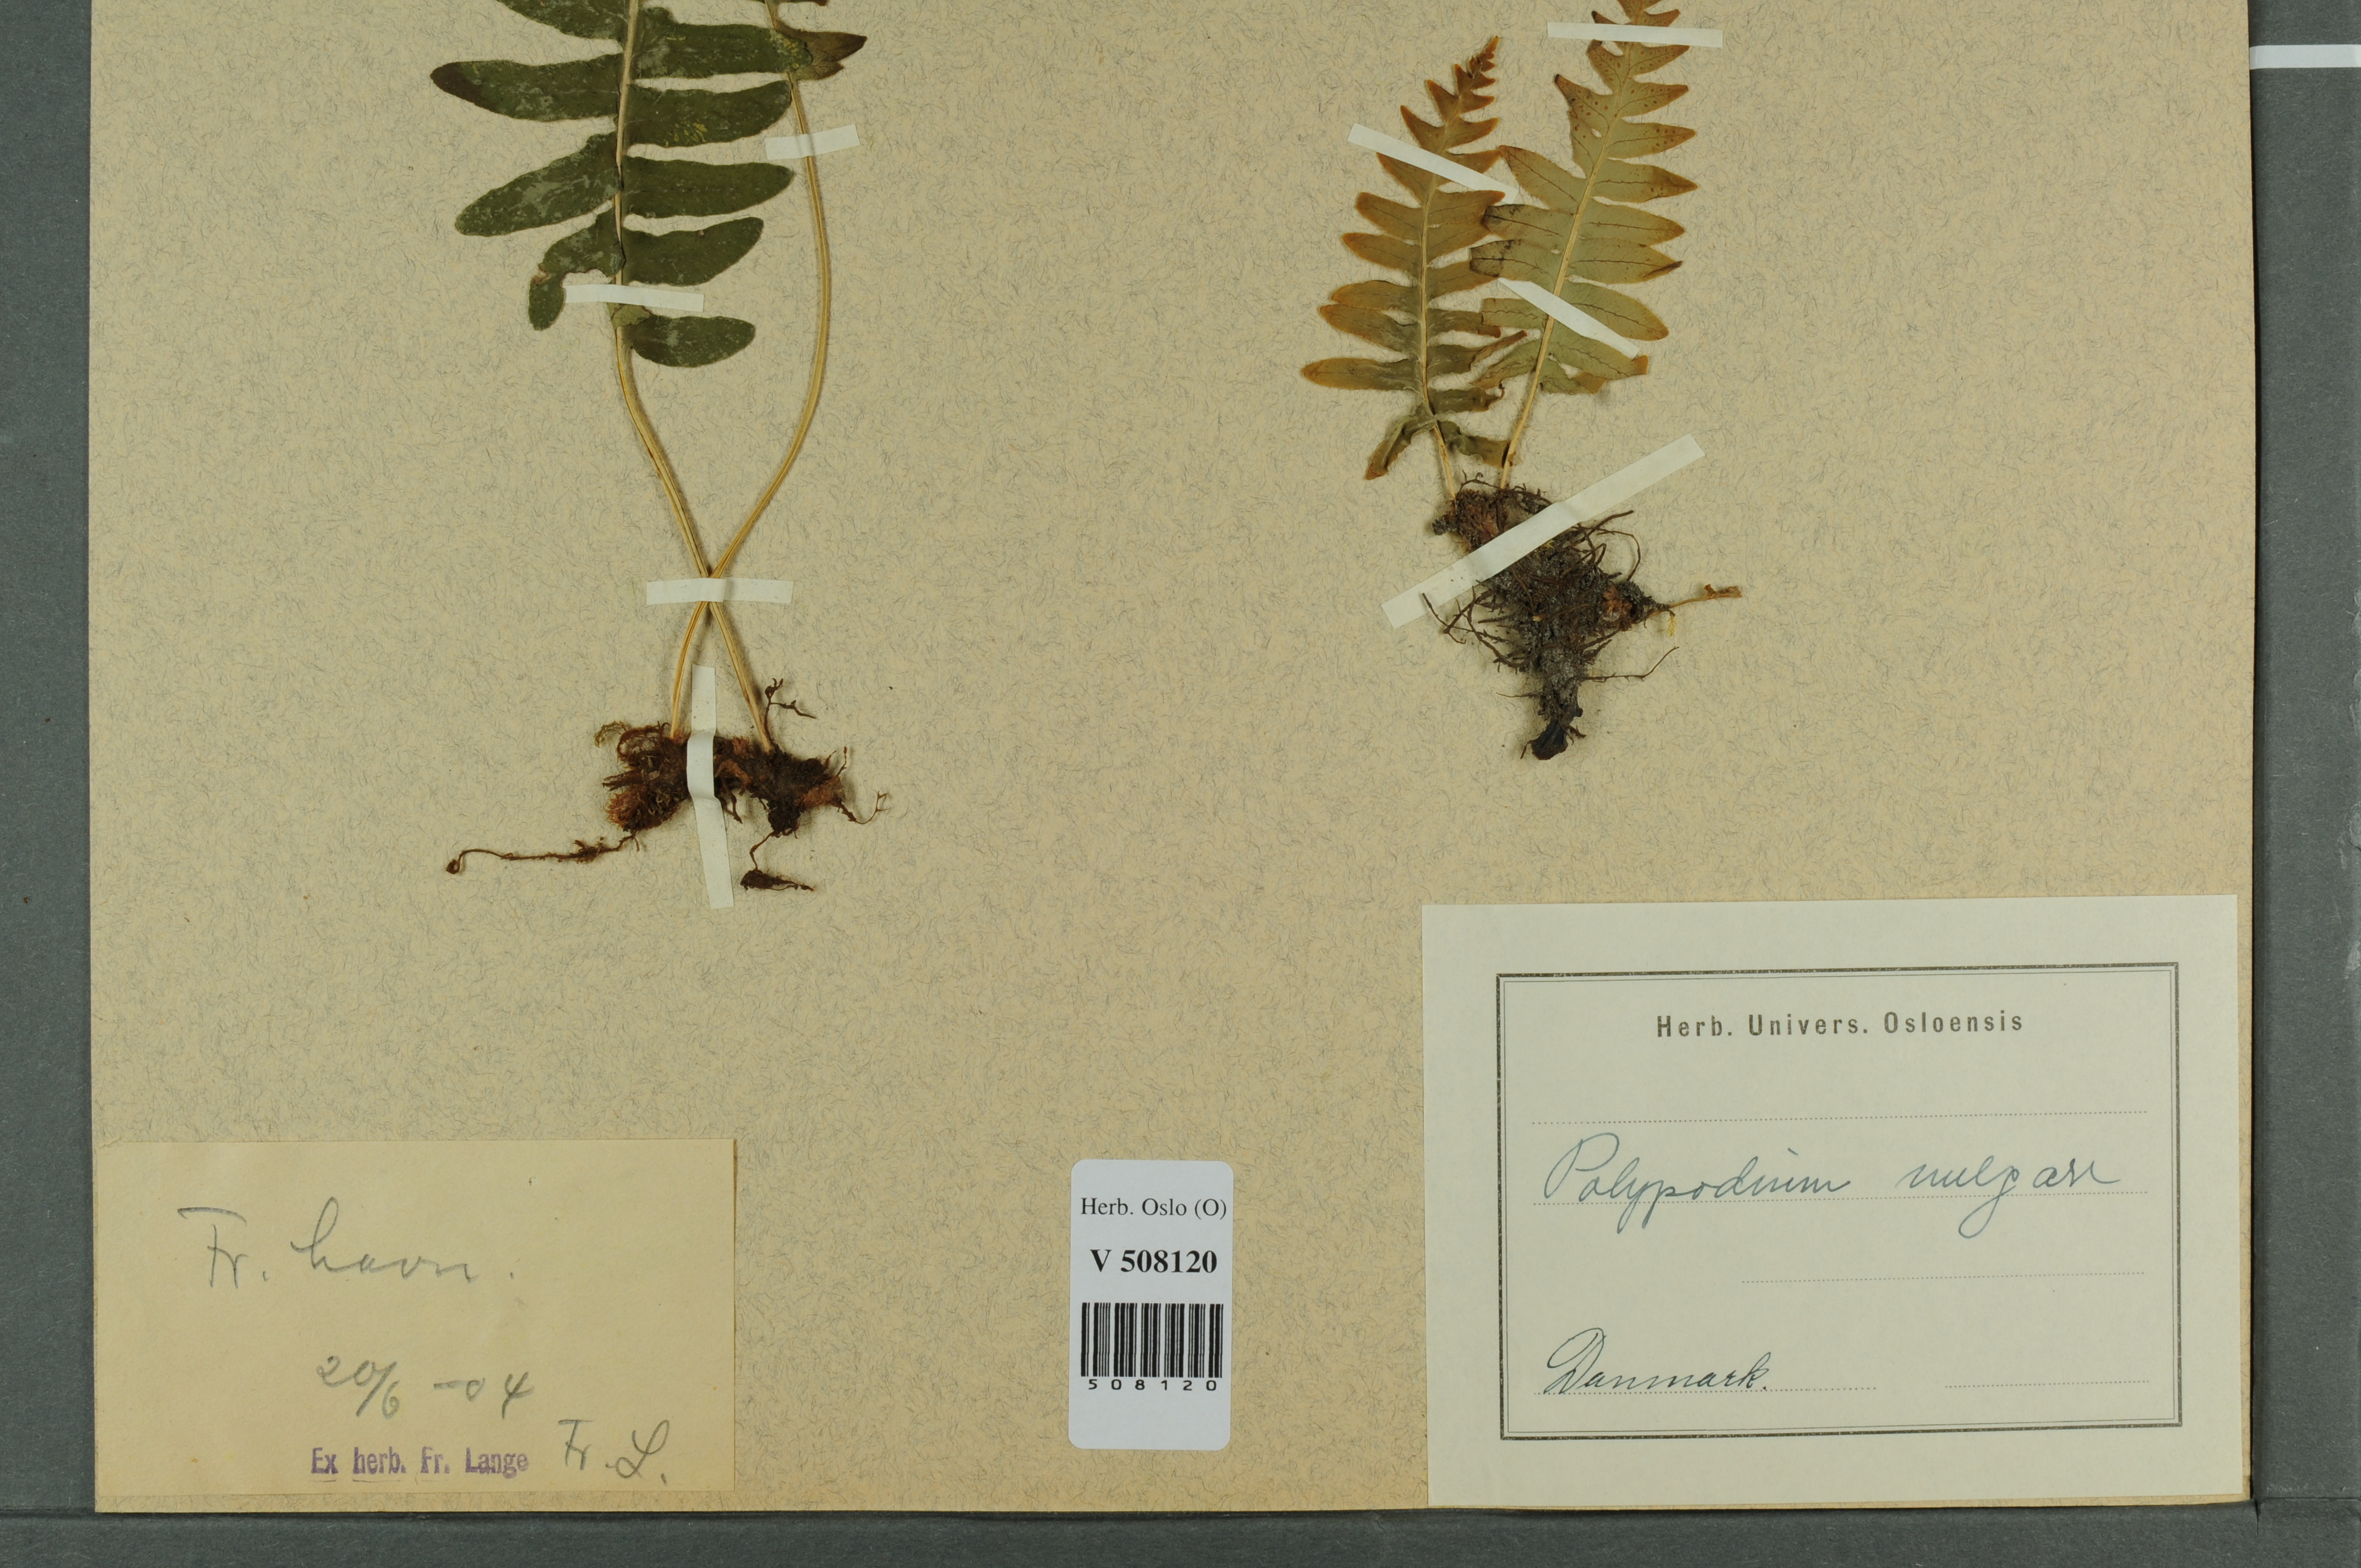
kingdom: Plantae
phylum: Tracheophyta
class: Polypodiopsida
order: Polypodiales
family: Polypodiaceae
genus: Polypodium
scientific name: Polypodium vulgare
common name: Common polypody
